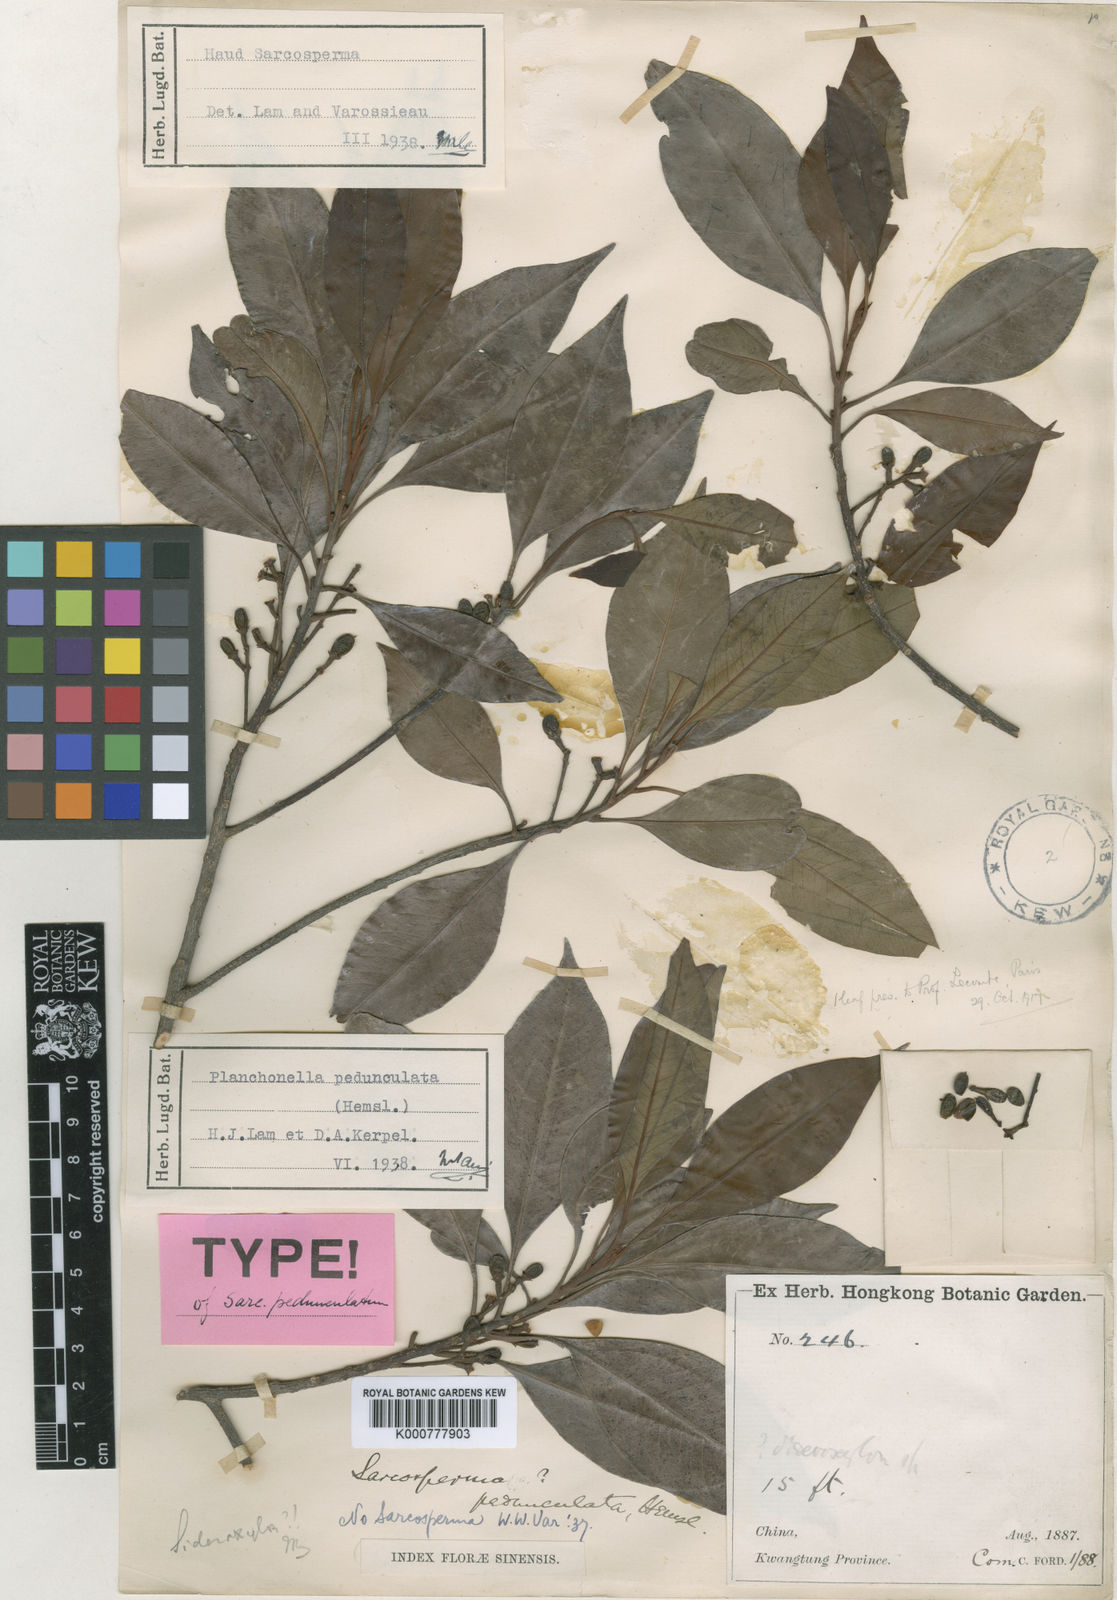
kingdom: Plantae
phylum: Tracheophyta
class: Magnoliopsida
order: Ericales
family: Sapotaceae
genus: Sideroxylon
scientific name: Sideroxylon
